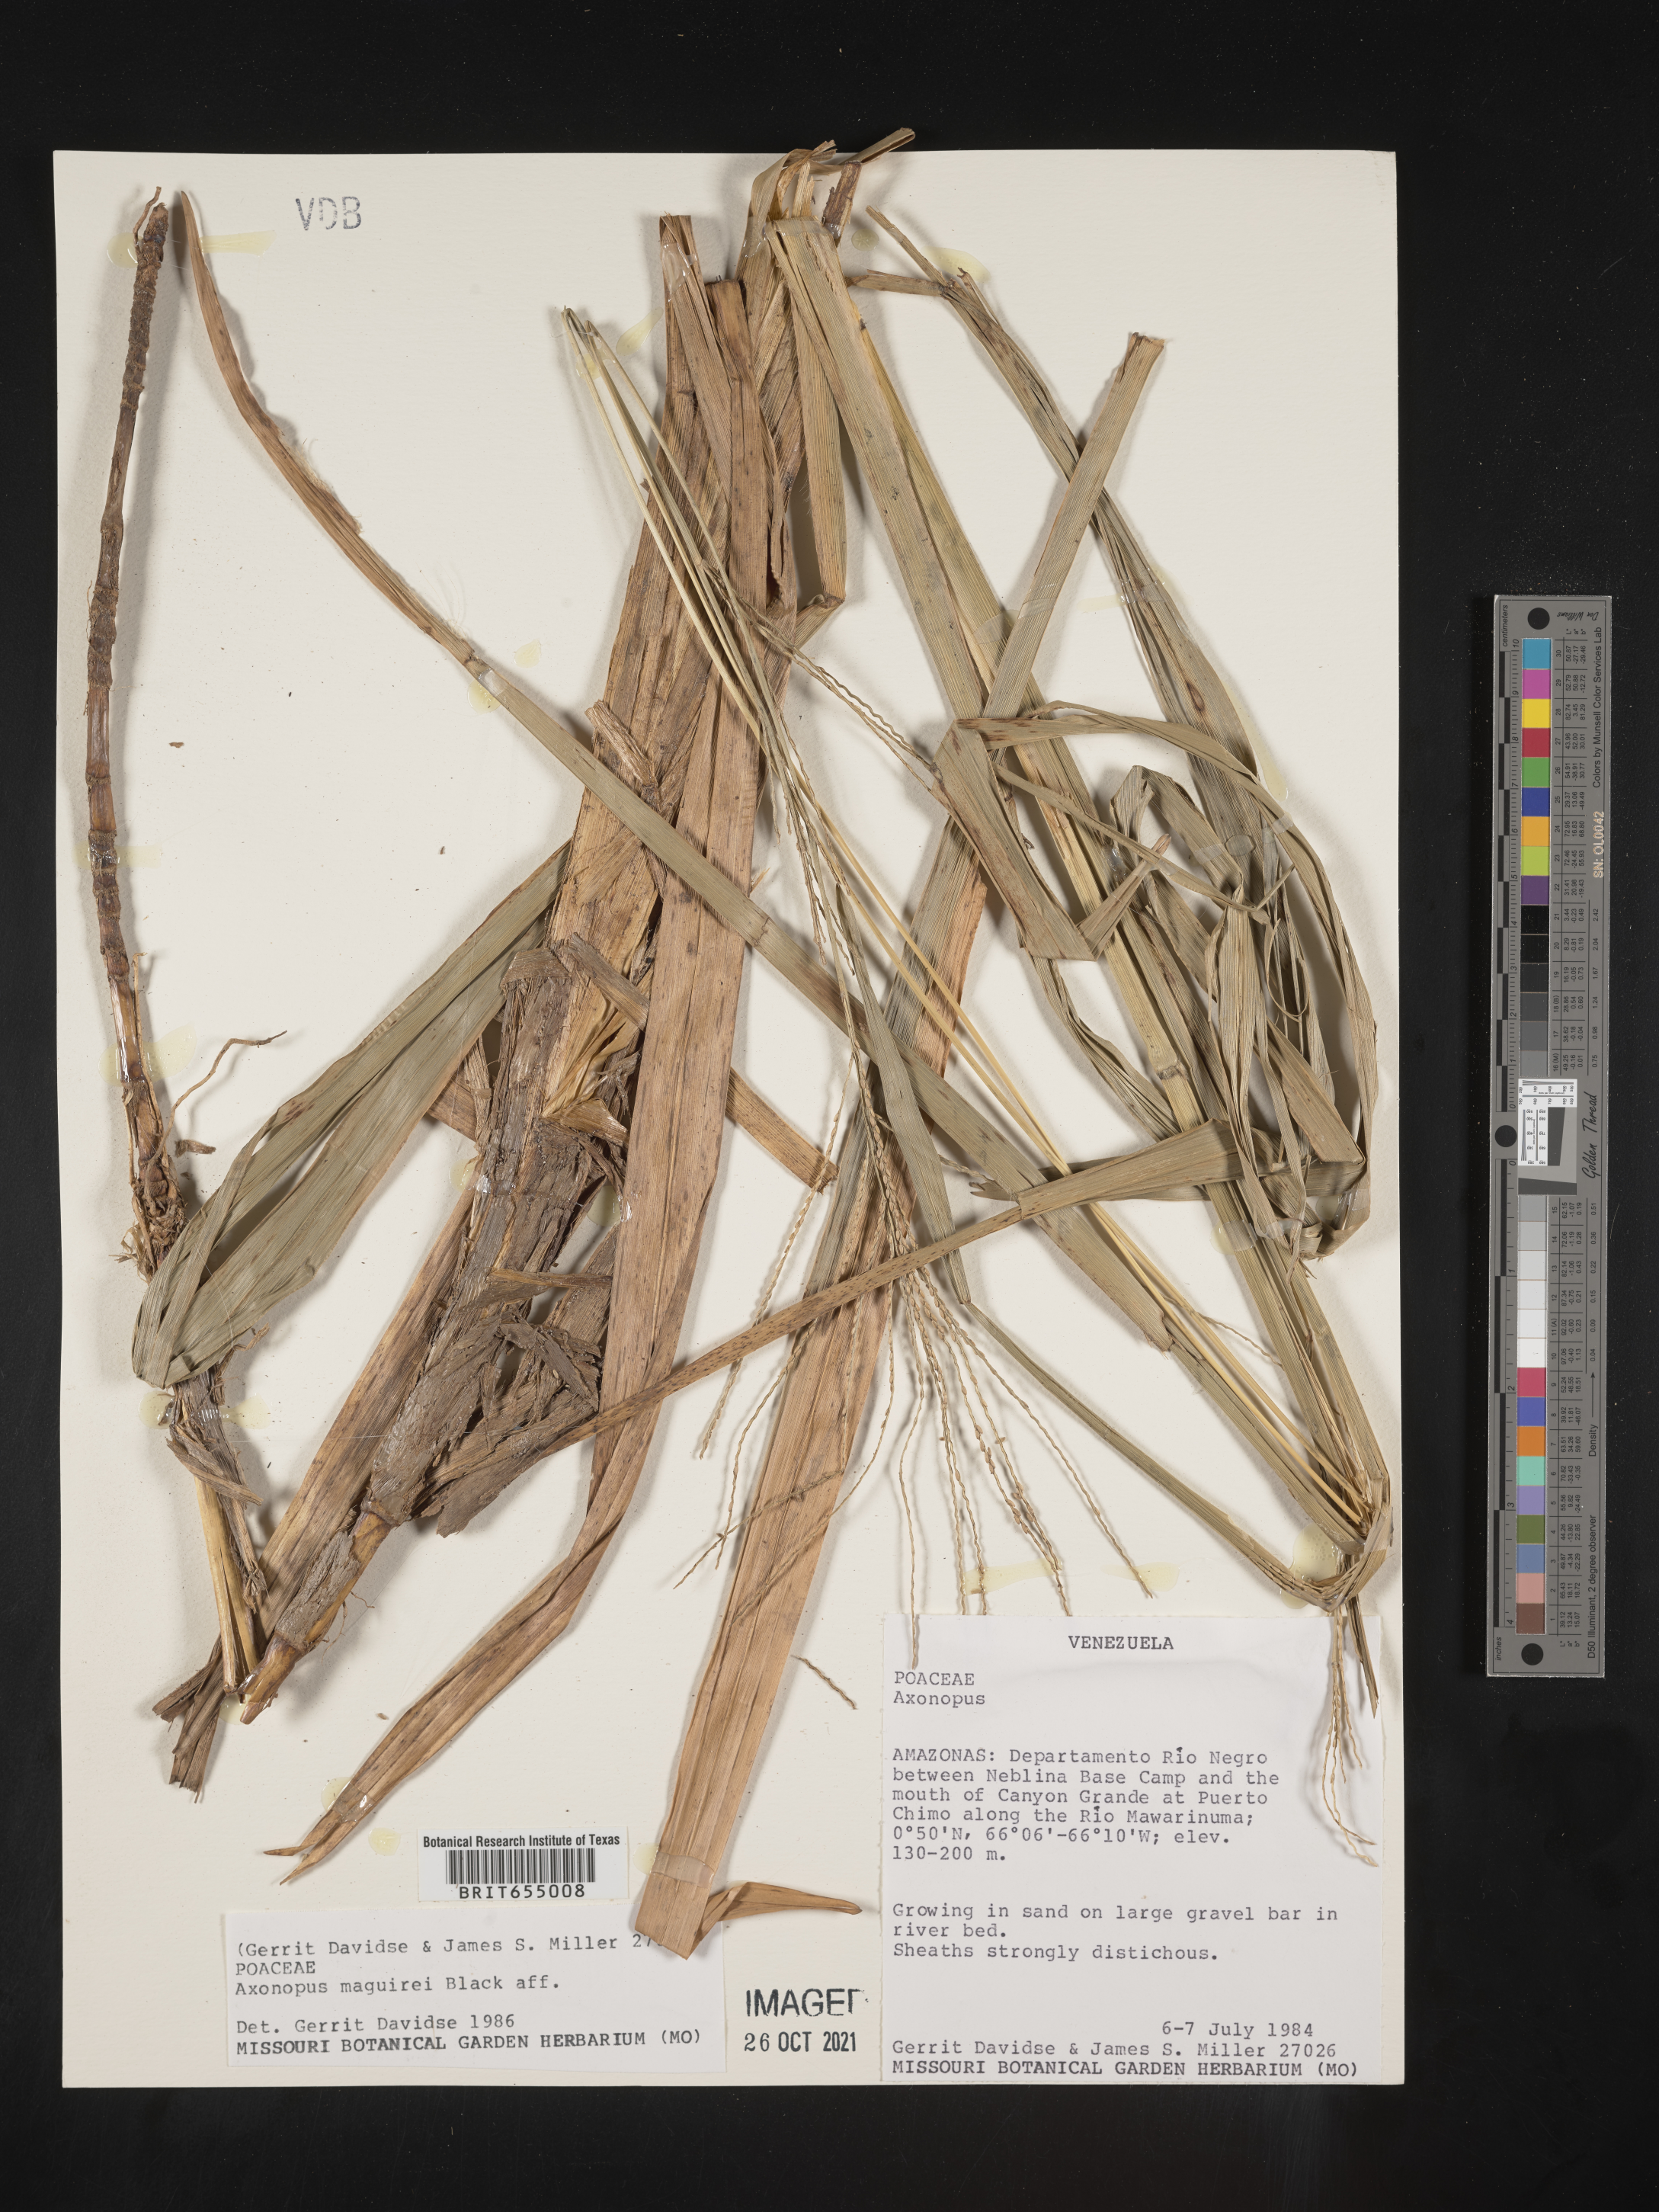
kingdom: Plantae
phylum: Tracheophyta
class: Liliopsida
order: Poales
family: Poaceae
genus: Axonopus
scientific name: Axonopus
